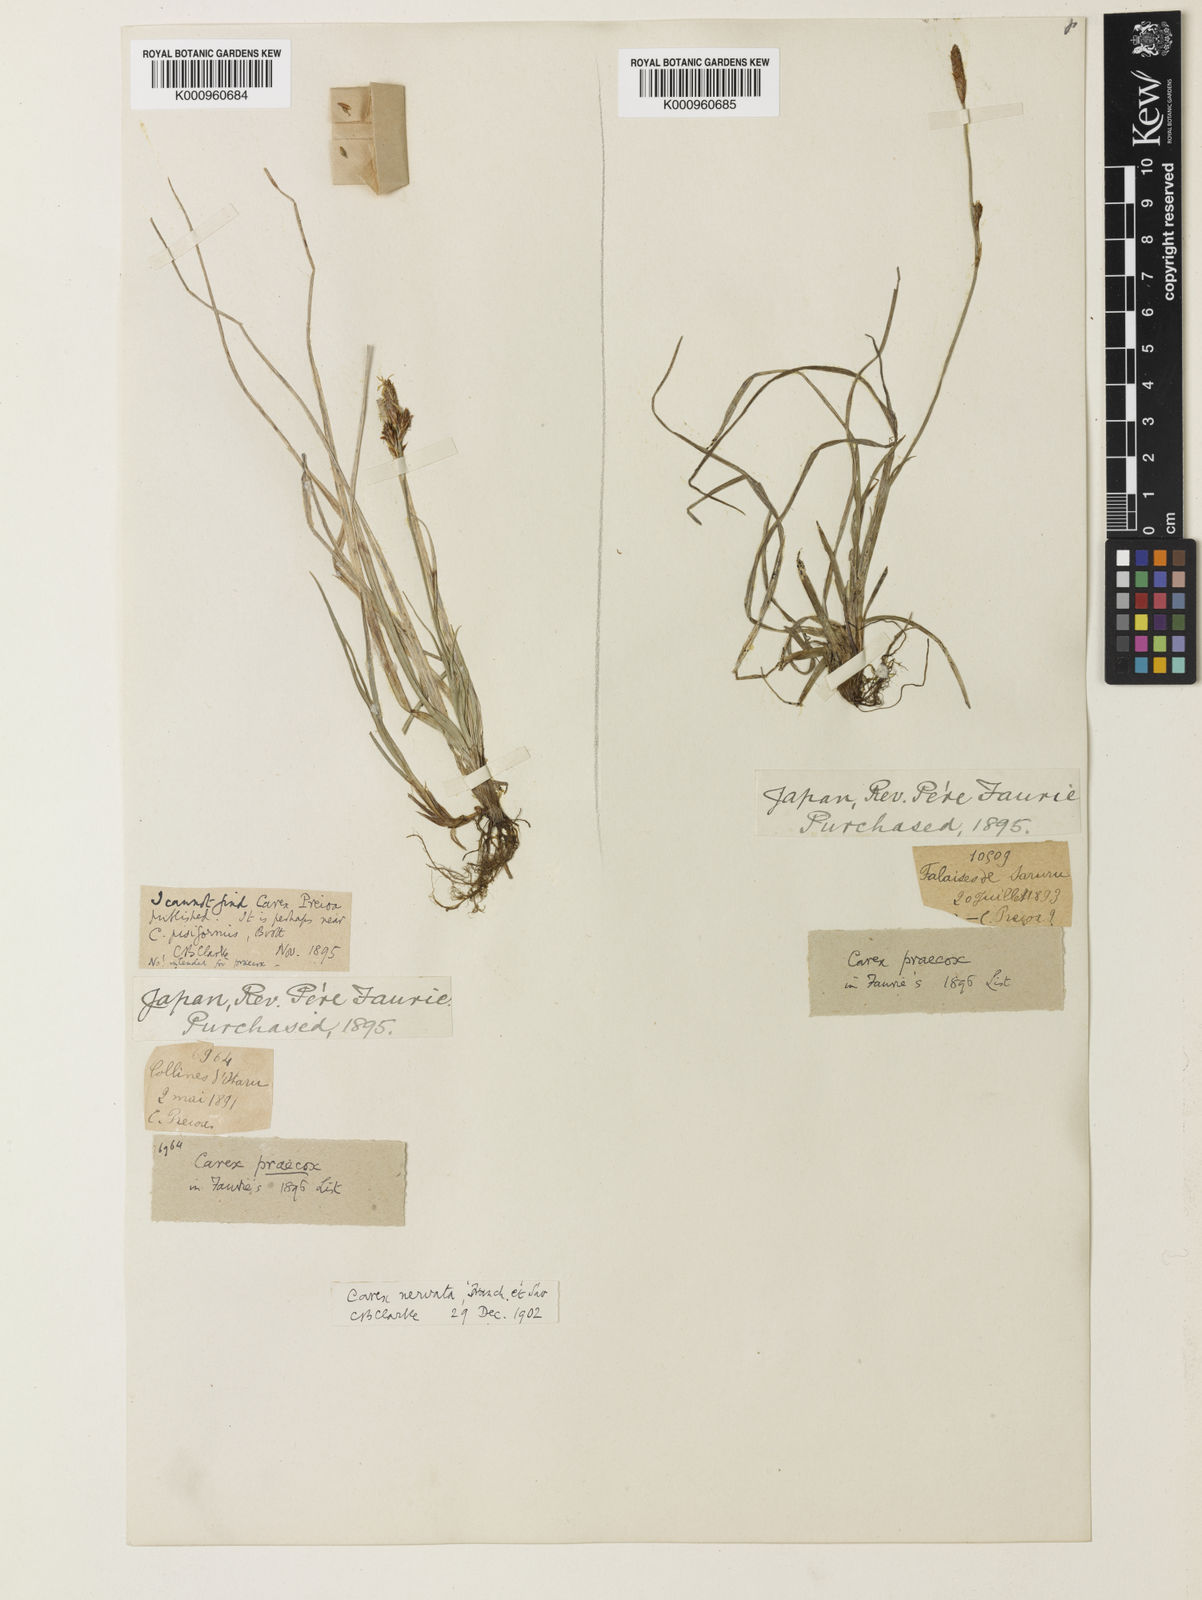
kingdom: Plantae
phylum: Tracheophyta
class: Liliopsida
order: Poales
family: Cyperaceae
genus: Carex
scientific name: Carex caryophyllea
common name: Spring sedge
